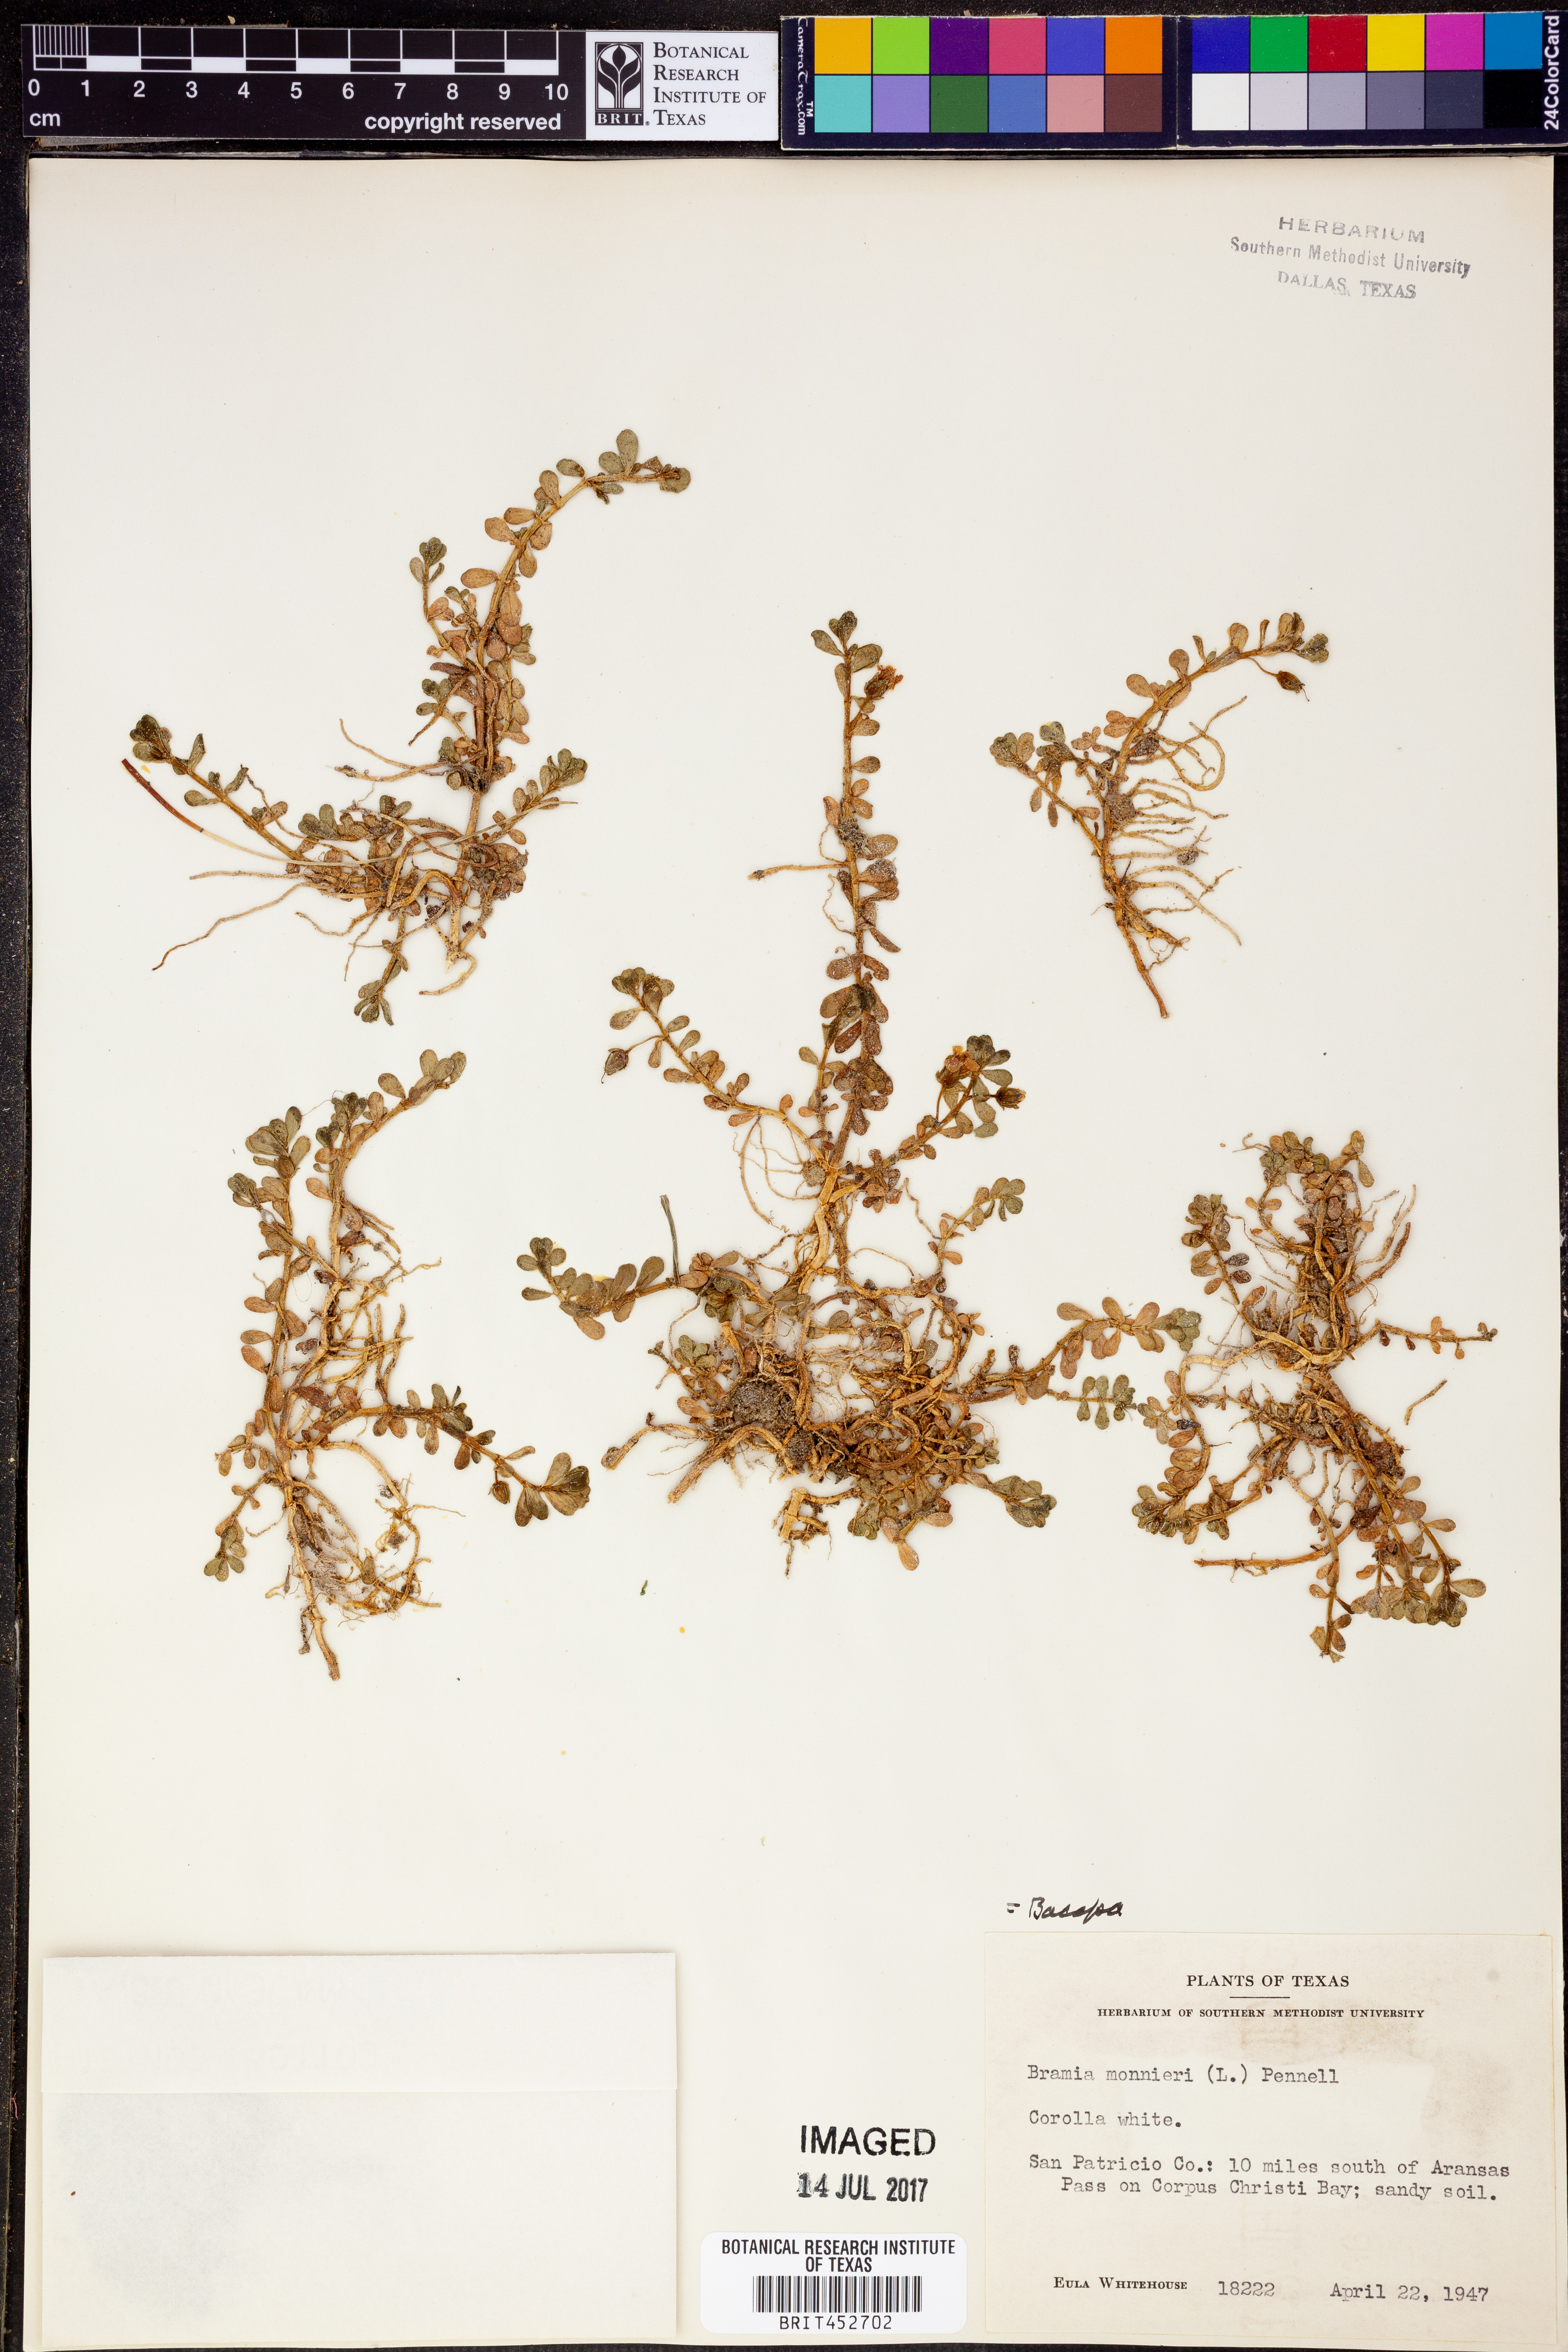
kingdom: Plantae
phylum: Tracheophyta
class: Magnoliopsida
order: Lamiales
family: Plantaginaceae
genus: Bacopa
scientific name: Bacopa monnieri
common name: Indian-pennywort
